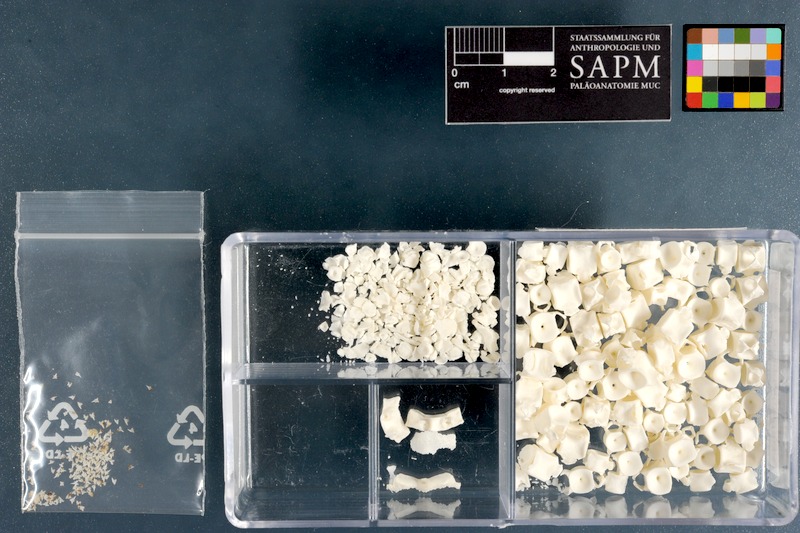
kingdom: Animalia
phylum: Chordata
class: Elasmobranchii
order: Carcharhiniformes
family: Scyliorhinidae
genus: Haploblepharus
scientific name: Haploblepharus fuscus
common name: Brown shyshark
